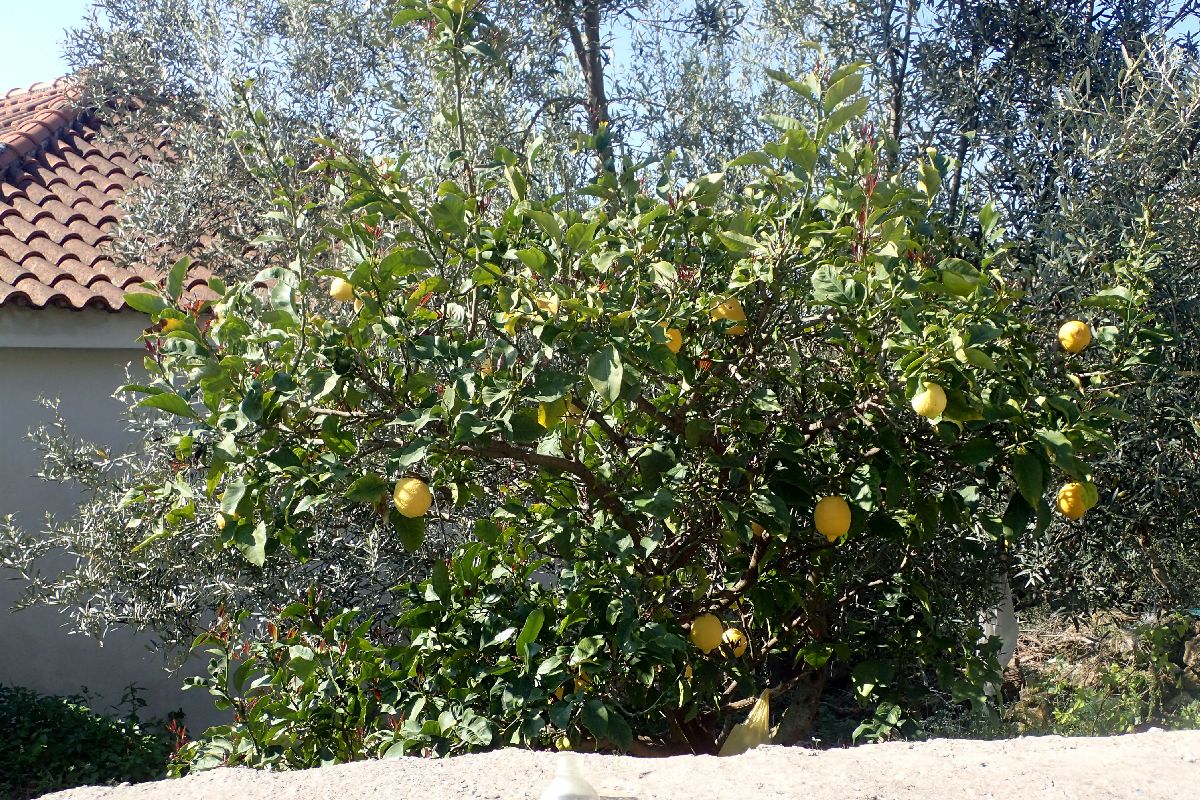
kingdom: Plantae
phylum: Tracheophyta
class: Magnoliopsida
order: Sapindales
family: Rutaceae
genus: Citrus
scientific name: Citrus limon
